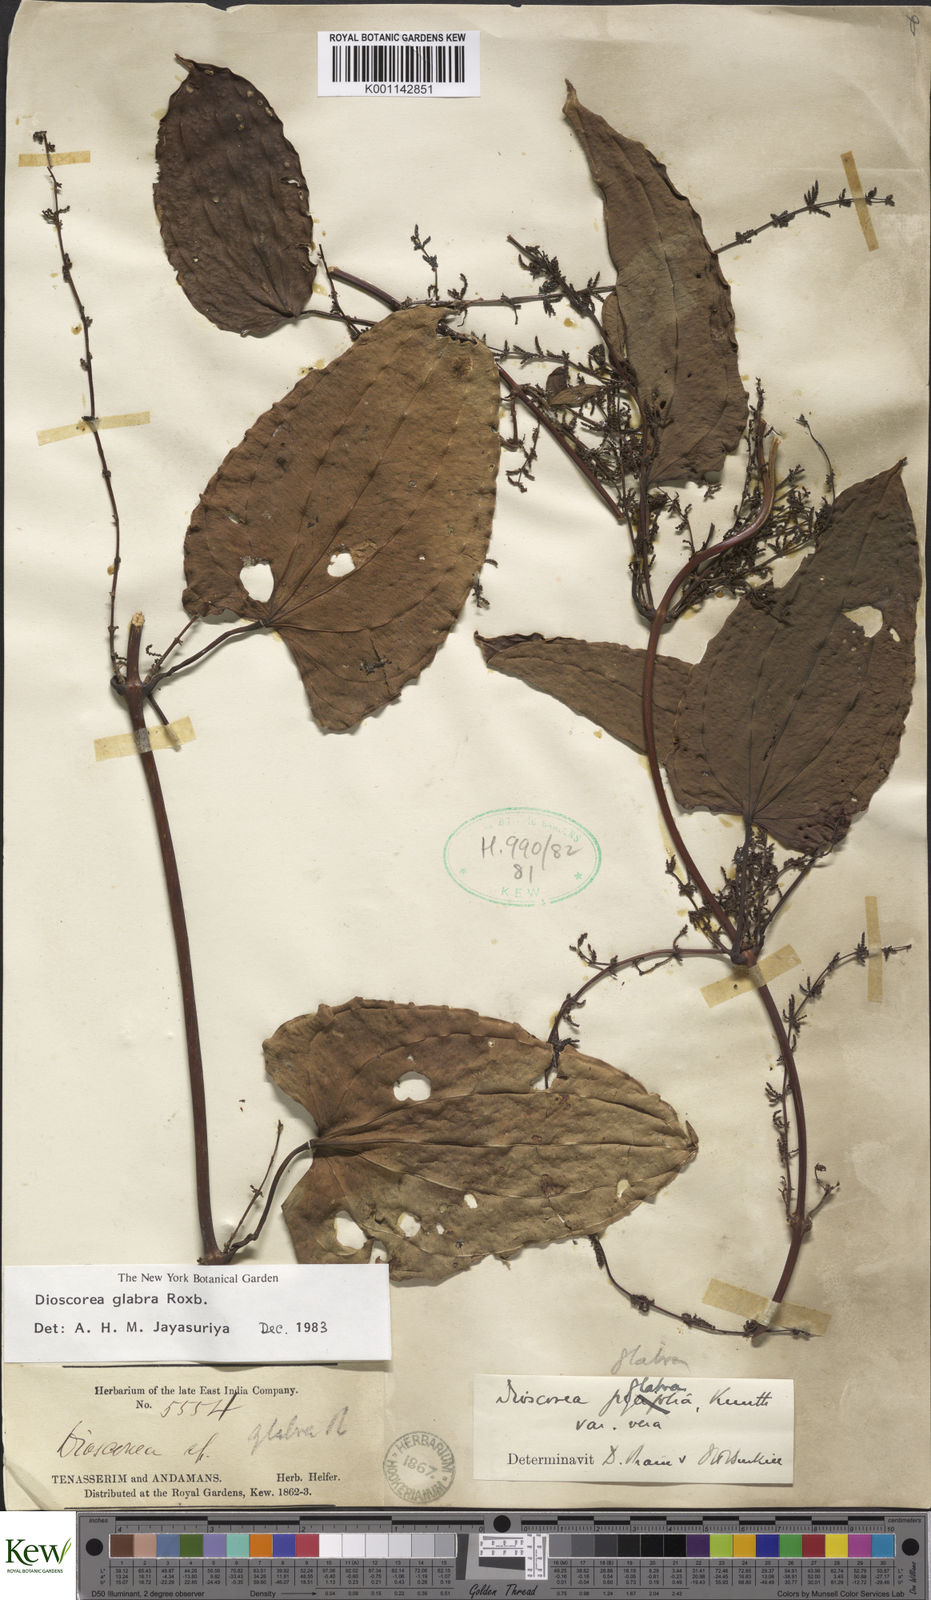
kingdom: Plantae
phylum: Tracheophyta
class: Liliopsida
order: Dioscoreales
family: Dioscoreaceae
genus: Dioscorea
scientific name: Dioscorea glabra
